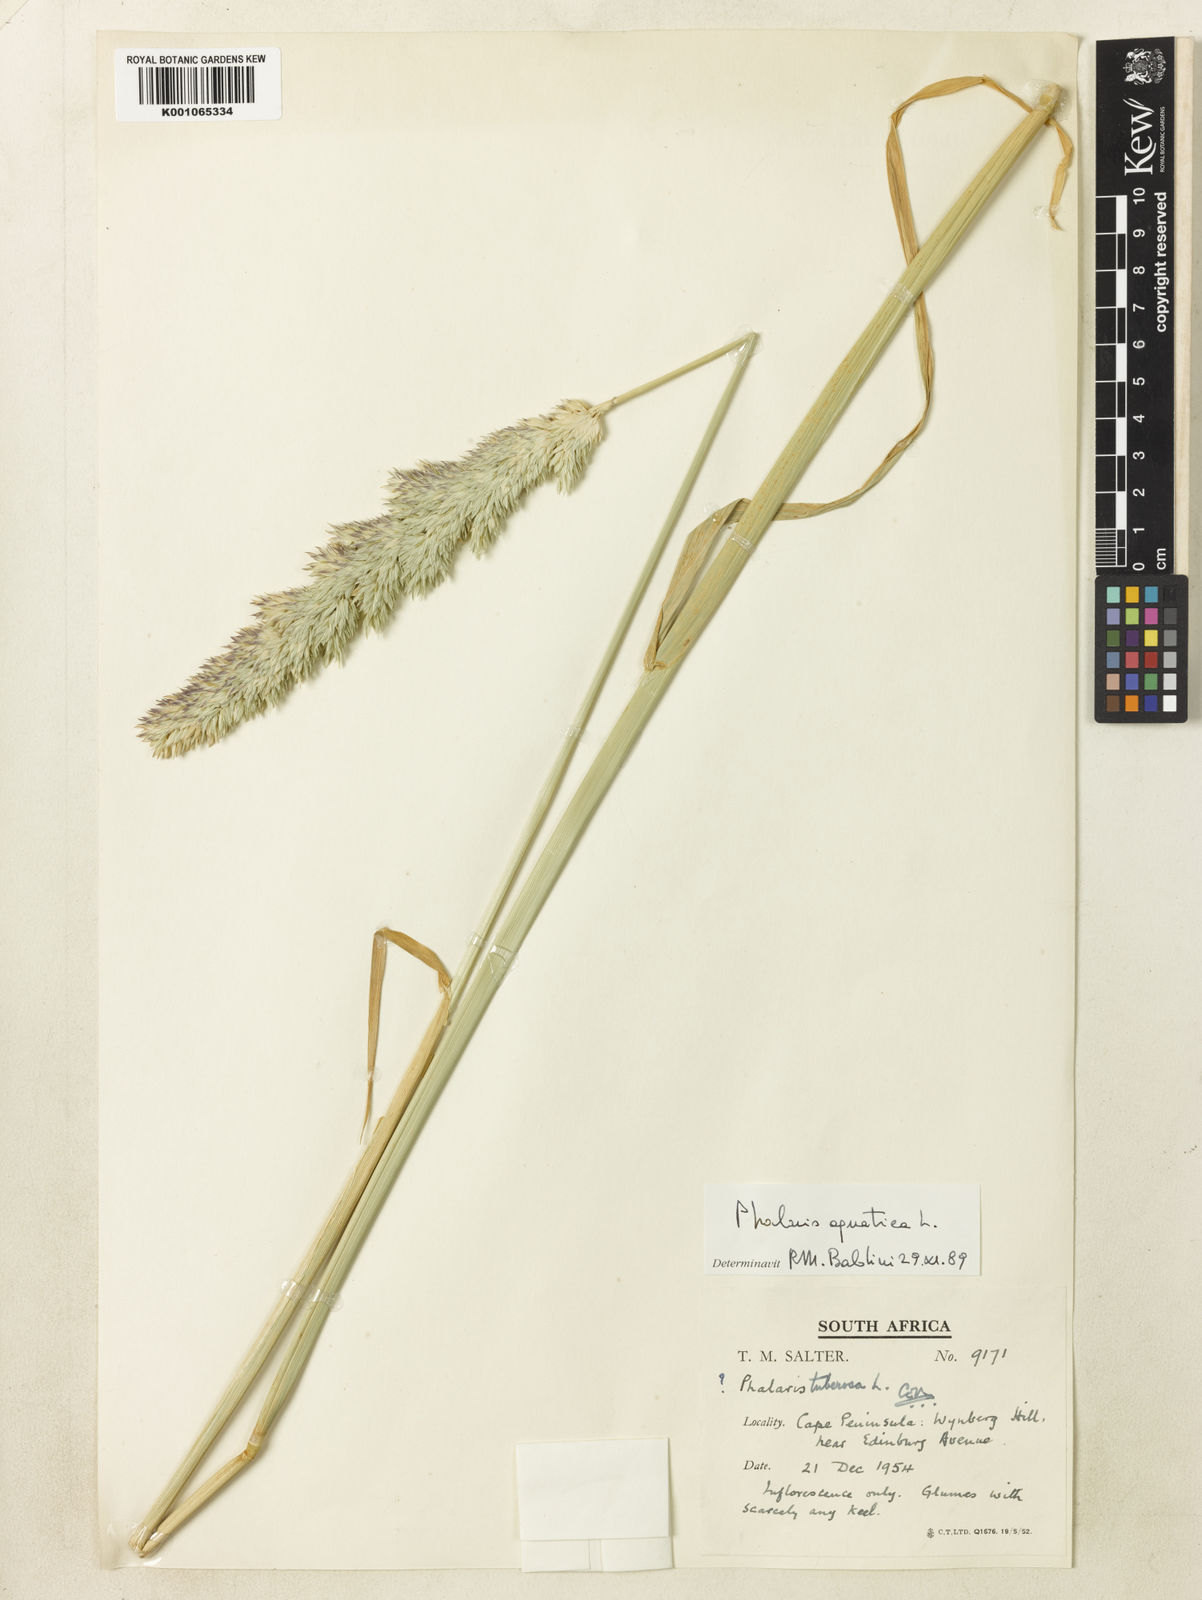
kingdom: Plantae
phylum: Tracheophyta
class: Liliopsida
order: Poales
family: Poaceae
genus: Phalaris
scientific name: Phalaris arundinacea
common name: Reed canary-grass
